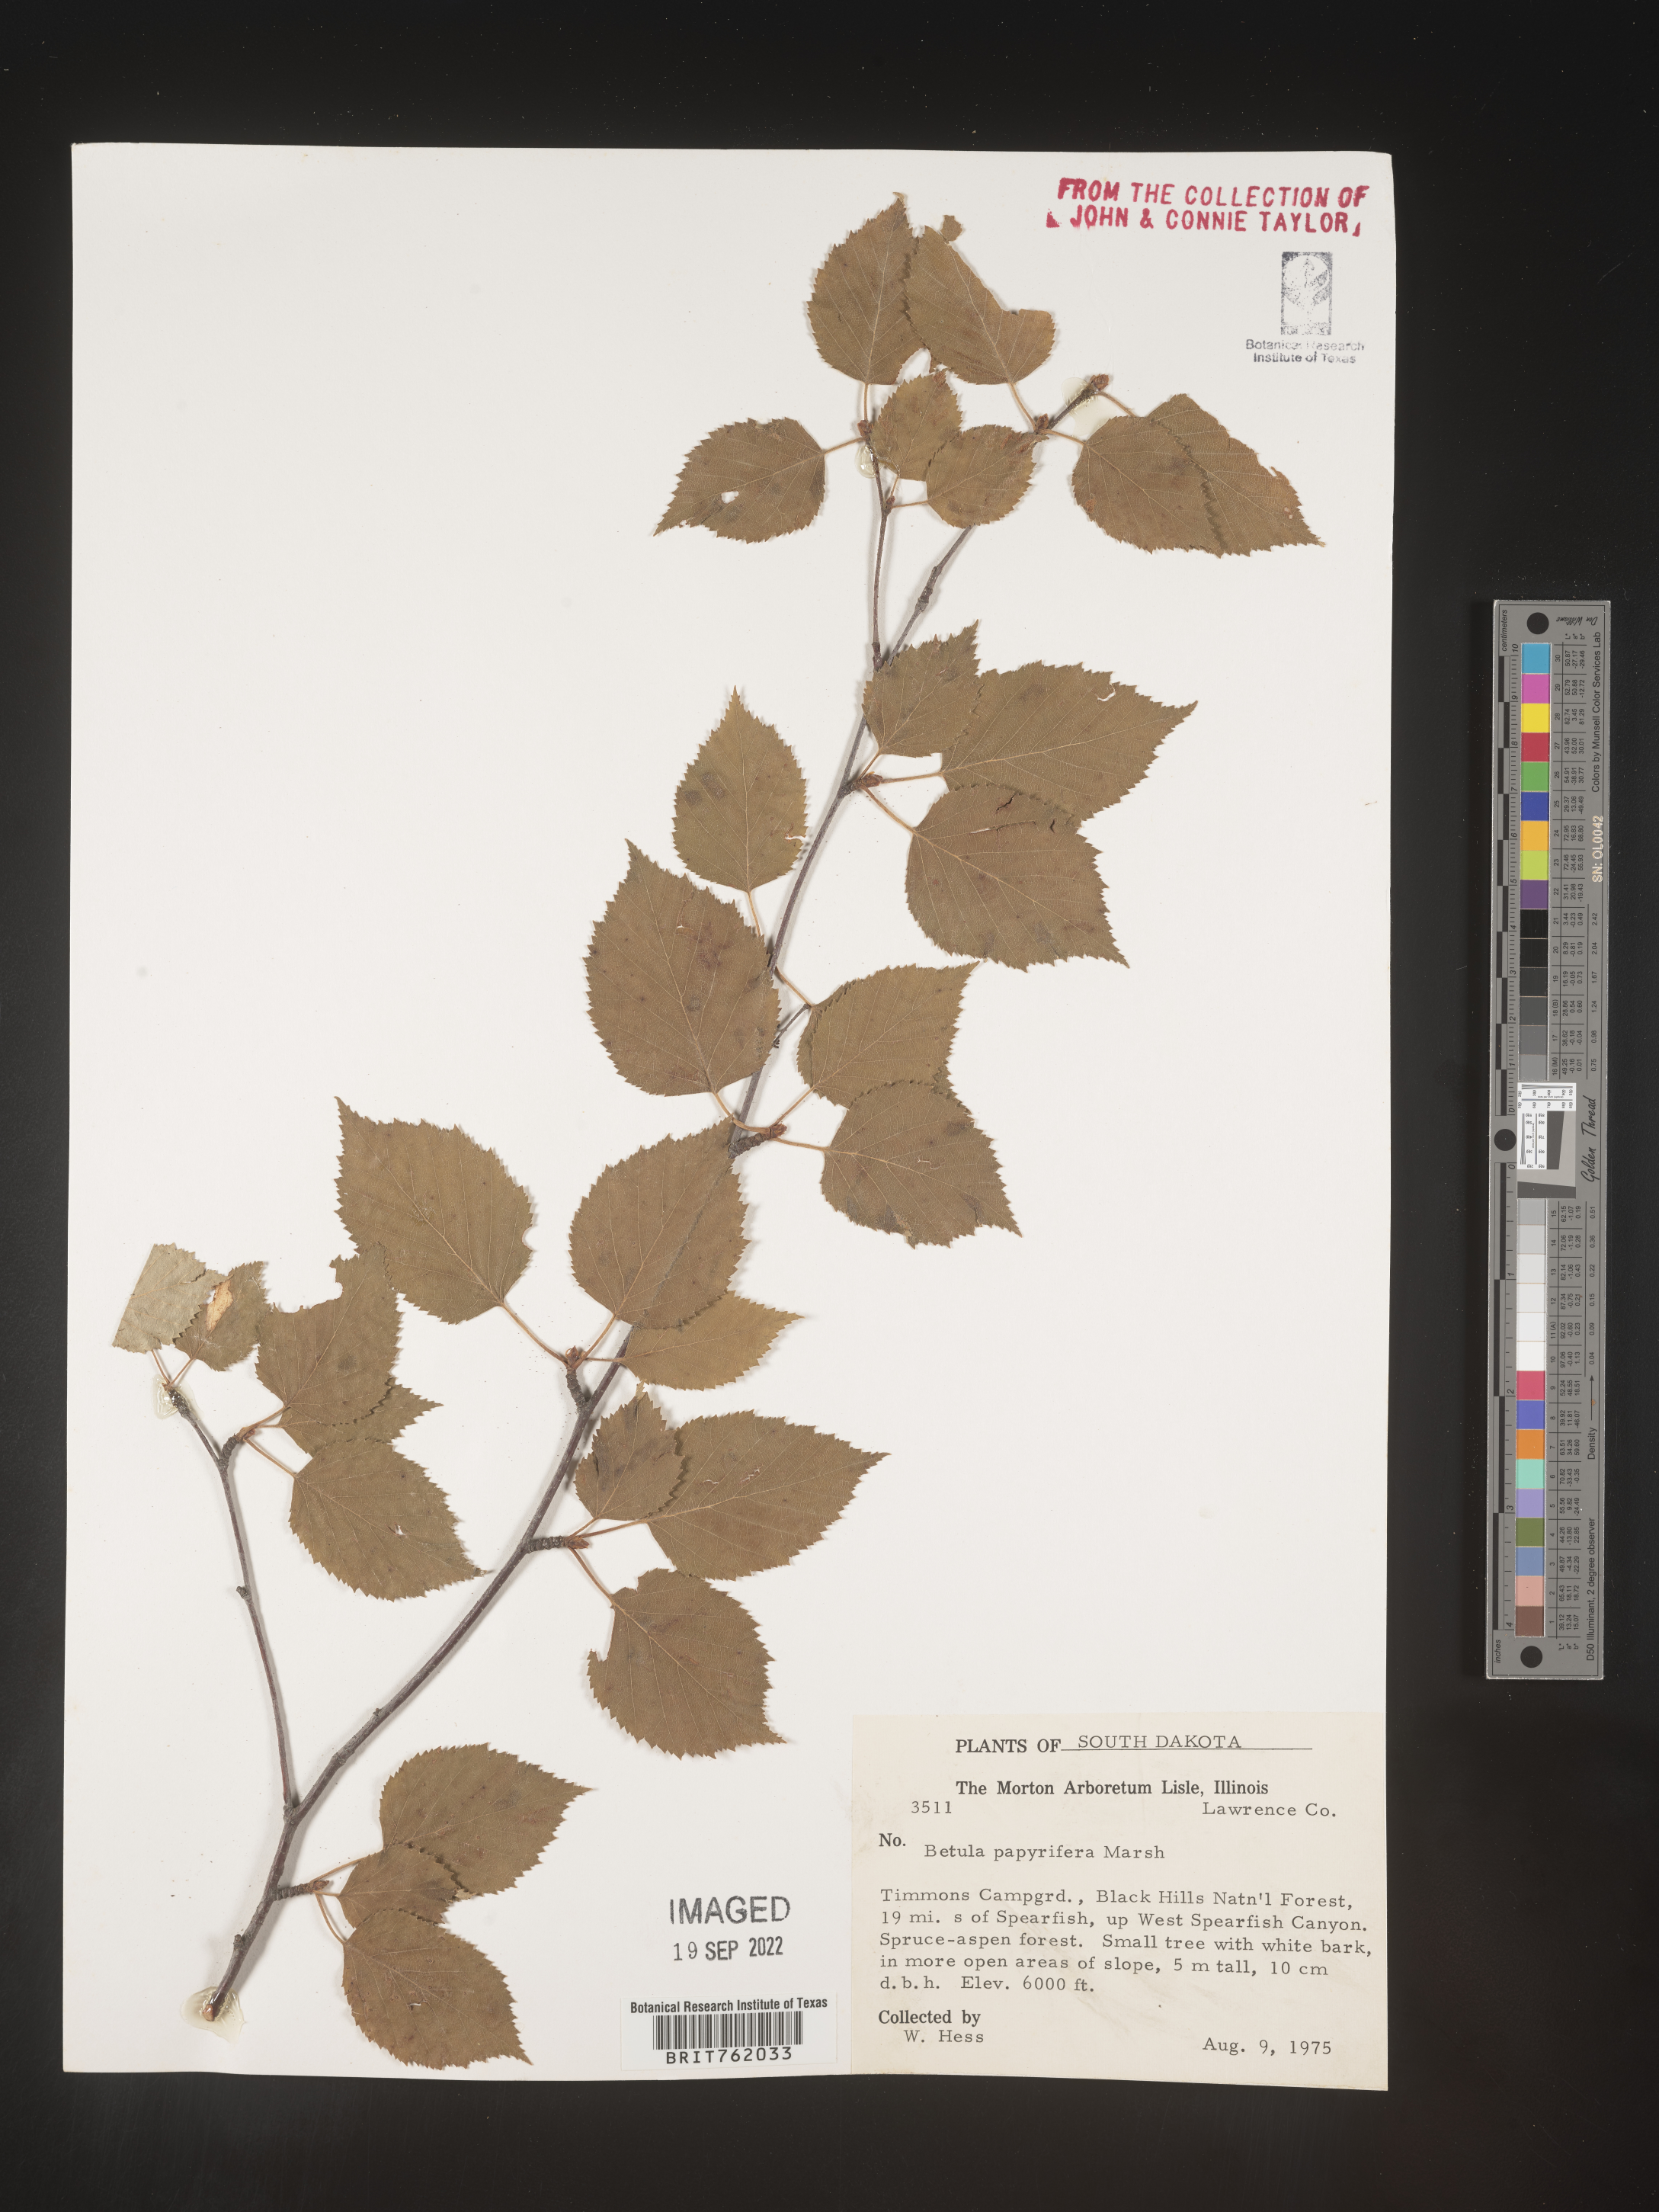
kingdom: Plantae
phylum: Tracheophyta
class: Magnoliopsida
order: Fagales
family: Betulaceae
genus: Betula
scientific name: Betula papyrifera
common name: Paper birch
